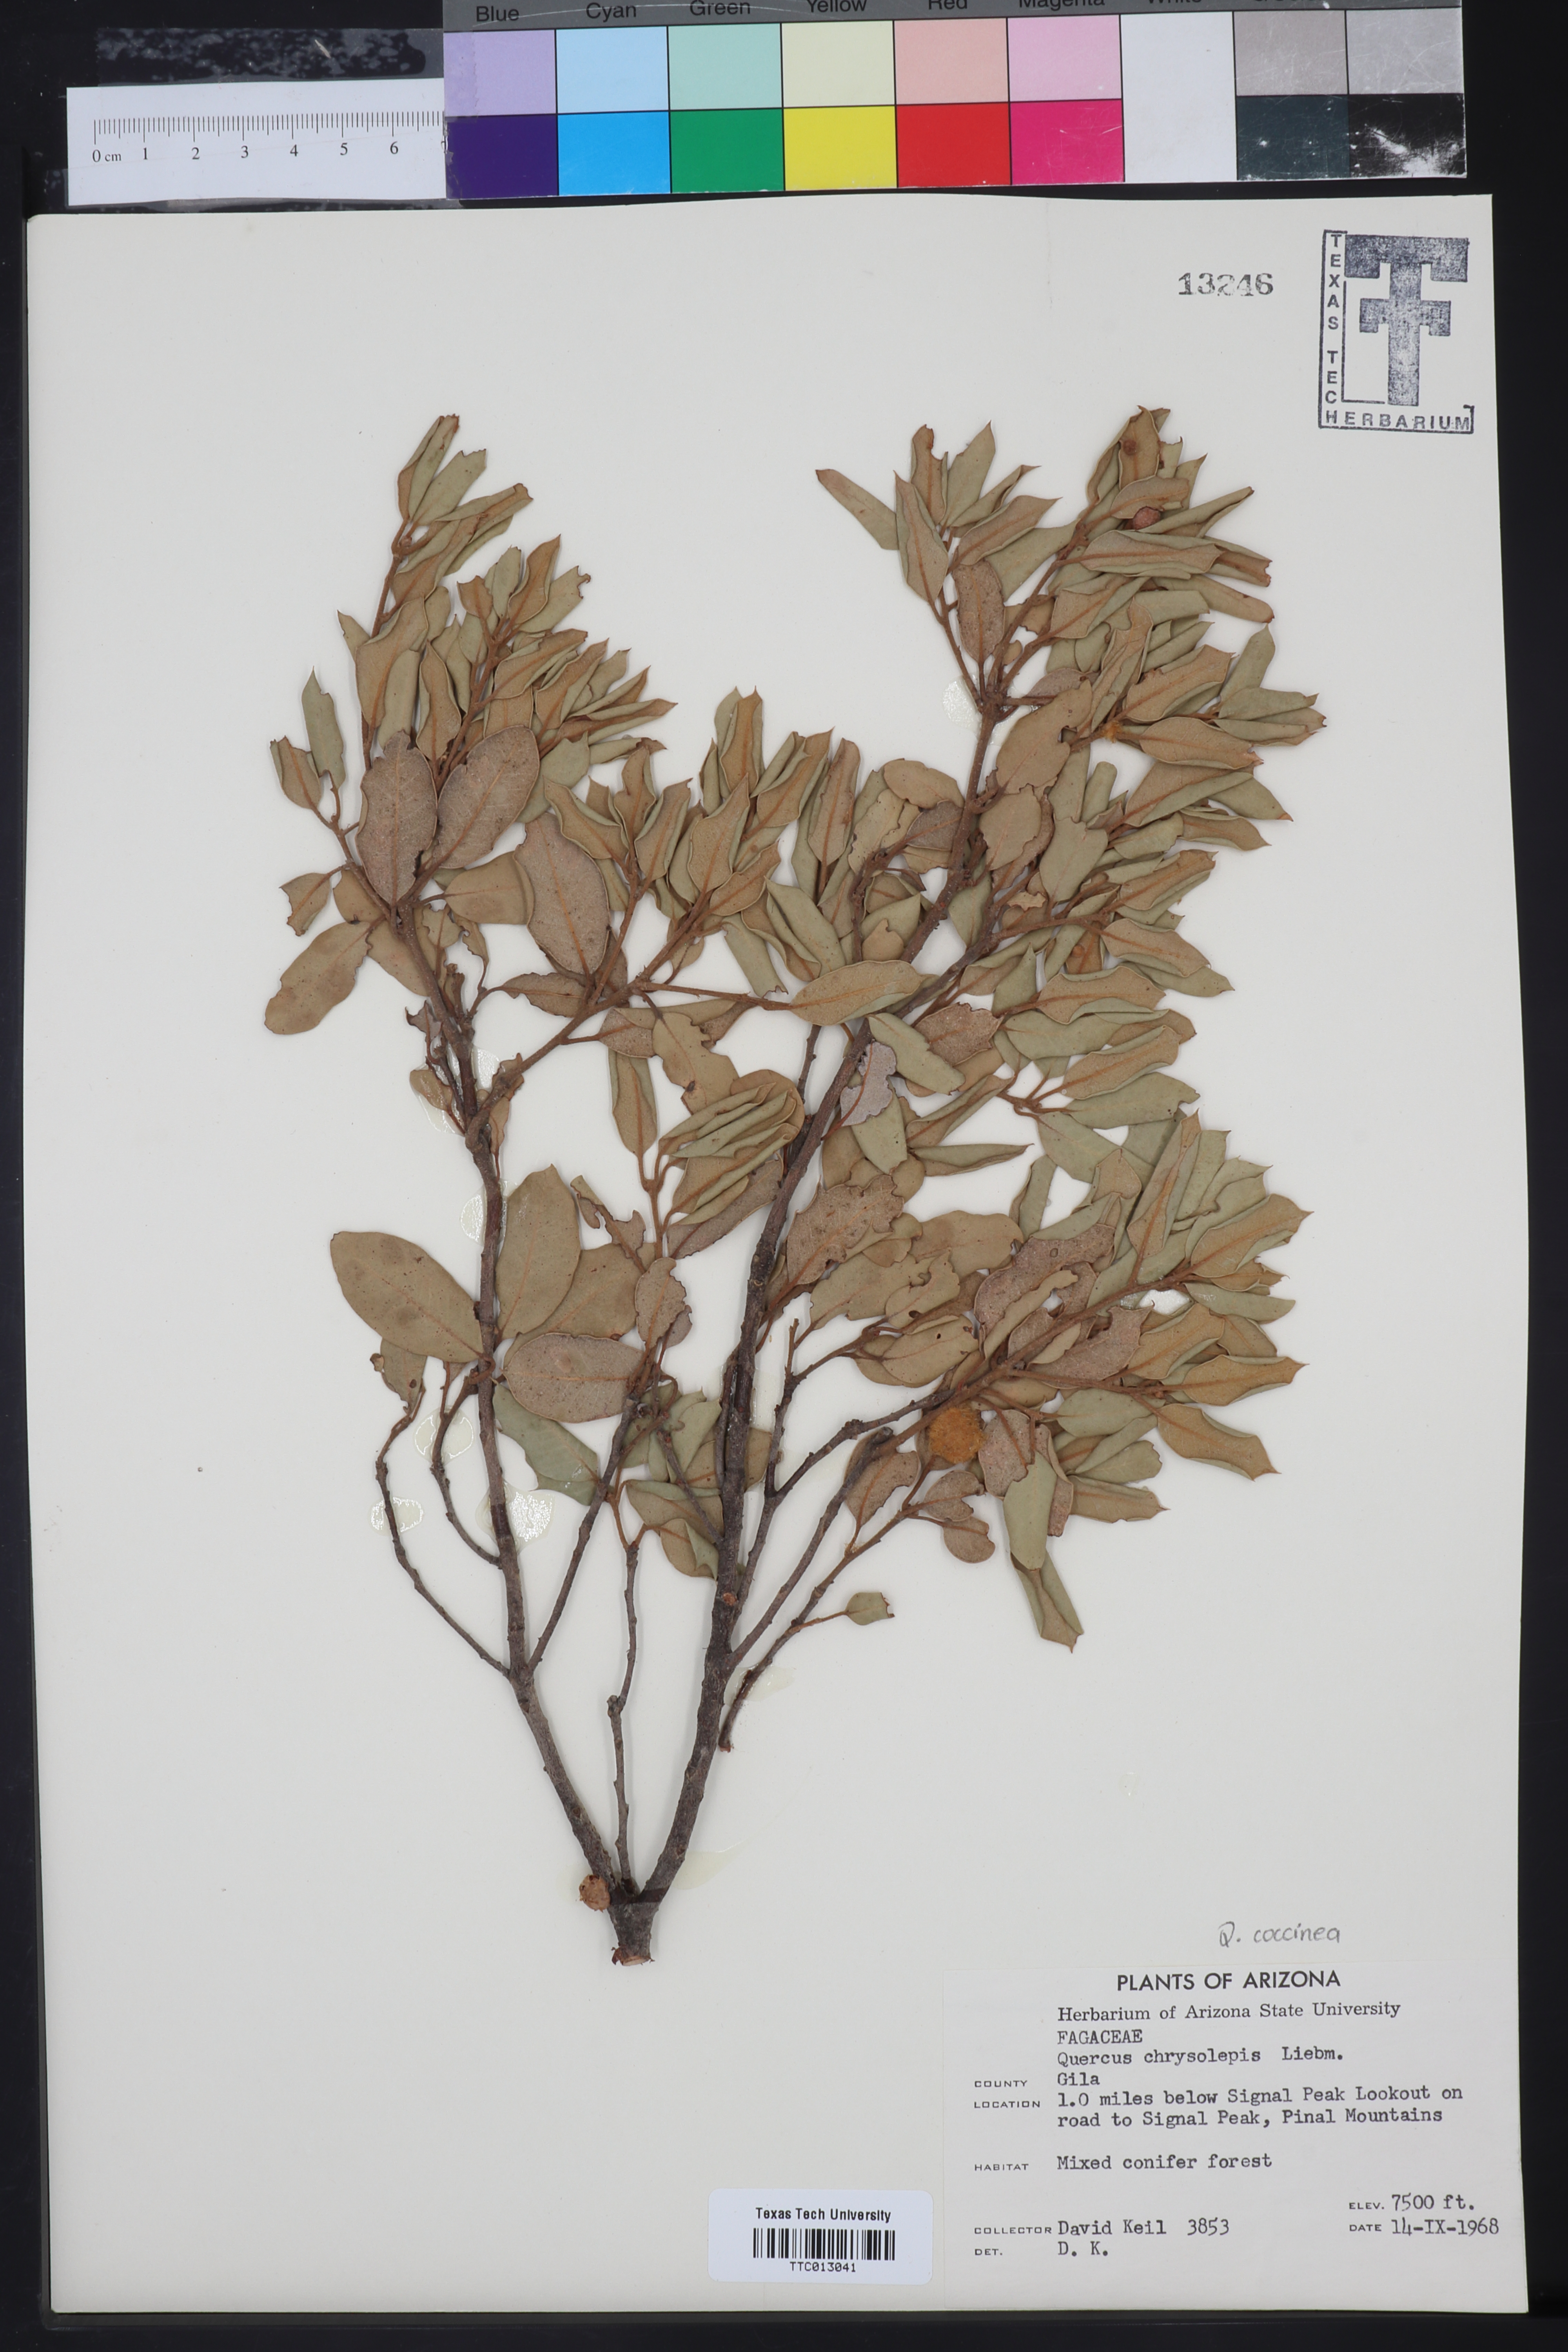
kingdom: Plantae
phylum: Tracheophyta
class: Magnoliopsida
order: Fagales
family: Fagaceae
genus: Quercus
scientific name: Quercus chrysolepis
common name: Canyon live oak
